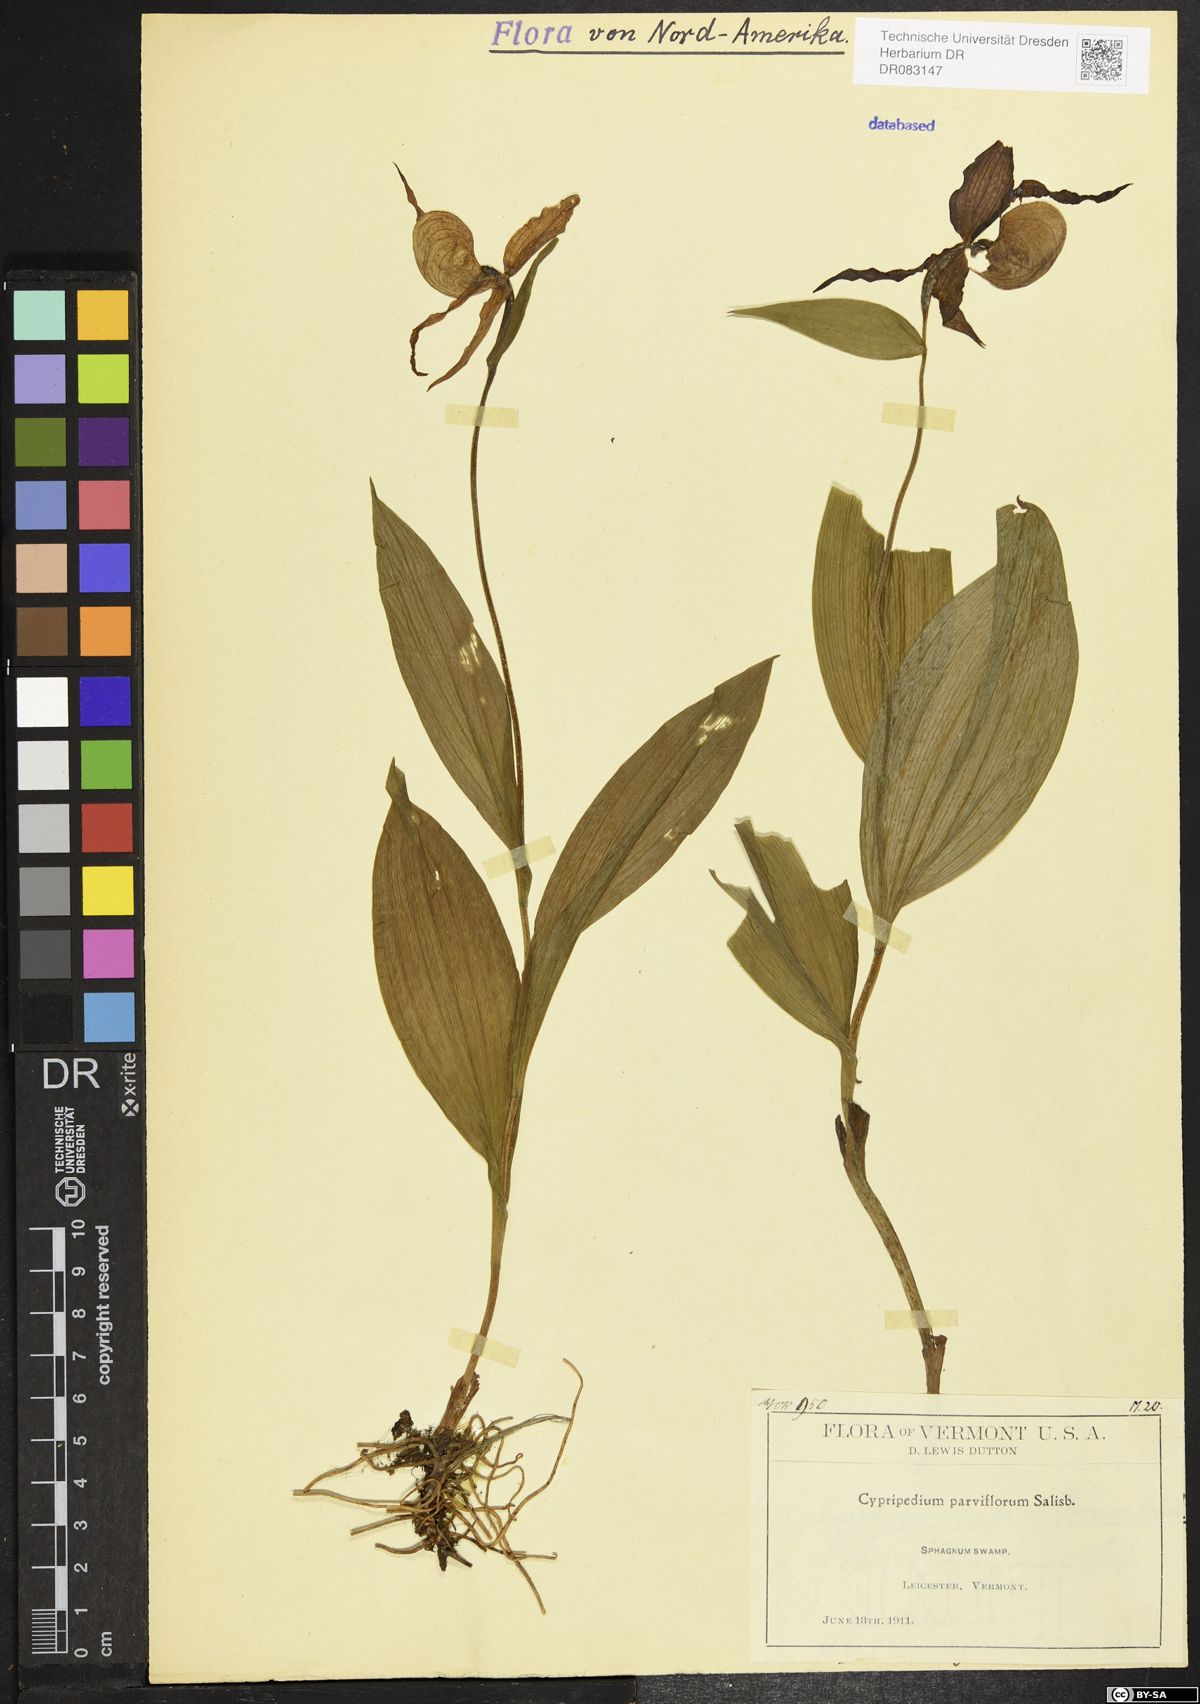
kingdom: Plantae
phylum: Tracheophyta
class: Liliopsida
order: Asparagales
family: Orchidaceae
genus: Cypripedium
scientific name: Cypripedium parviflorum
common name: American yellow lady's-slipper
